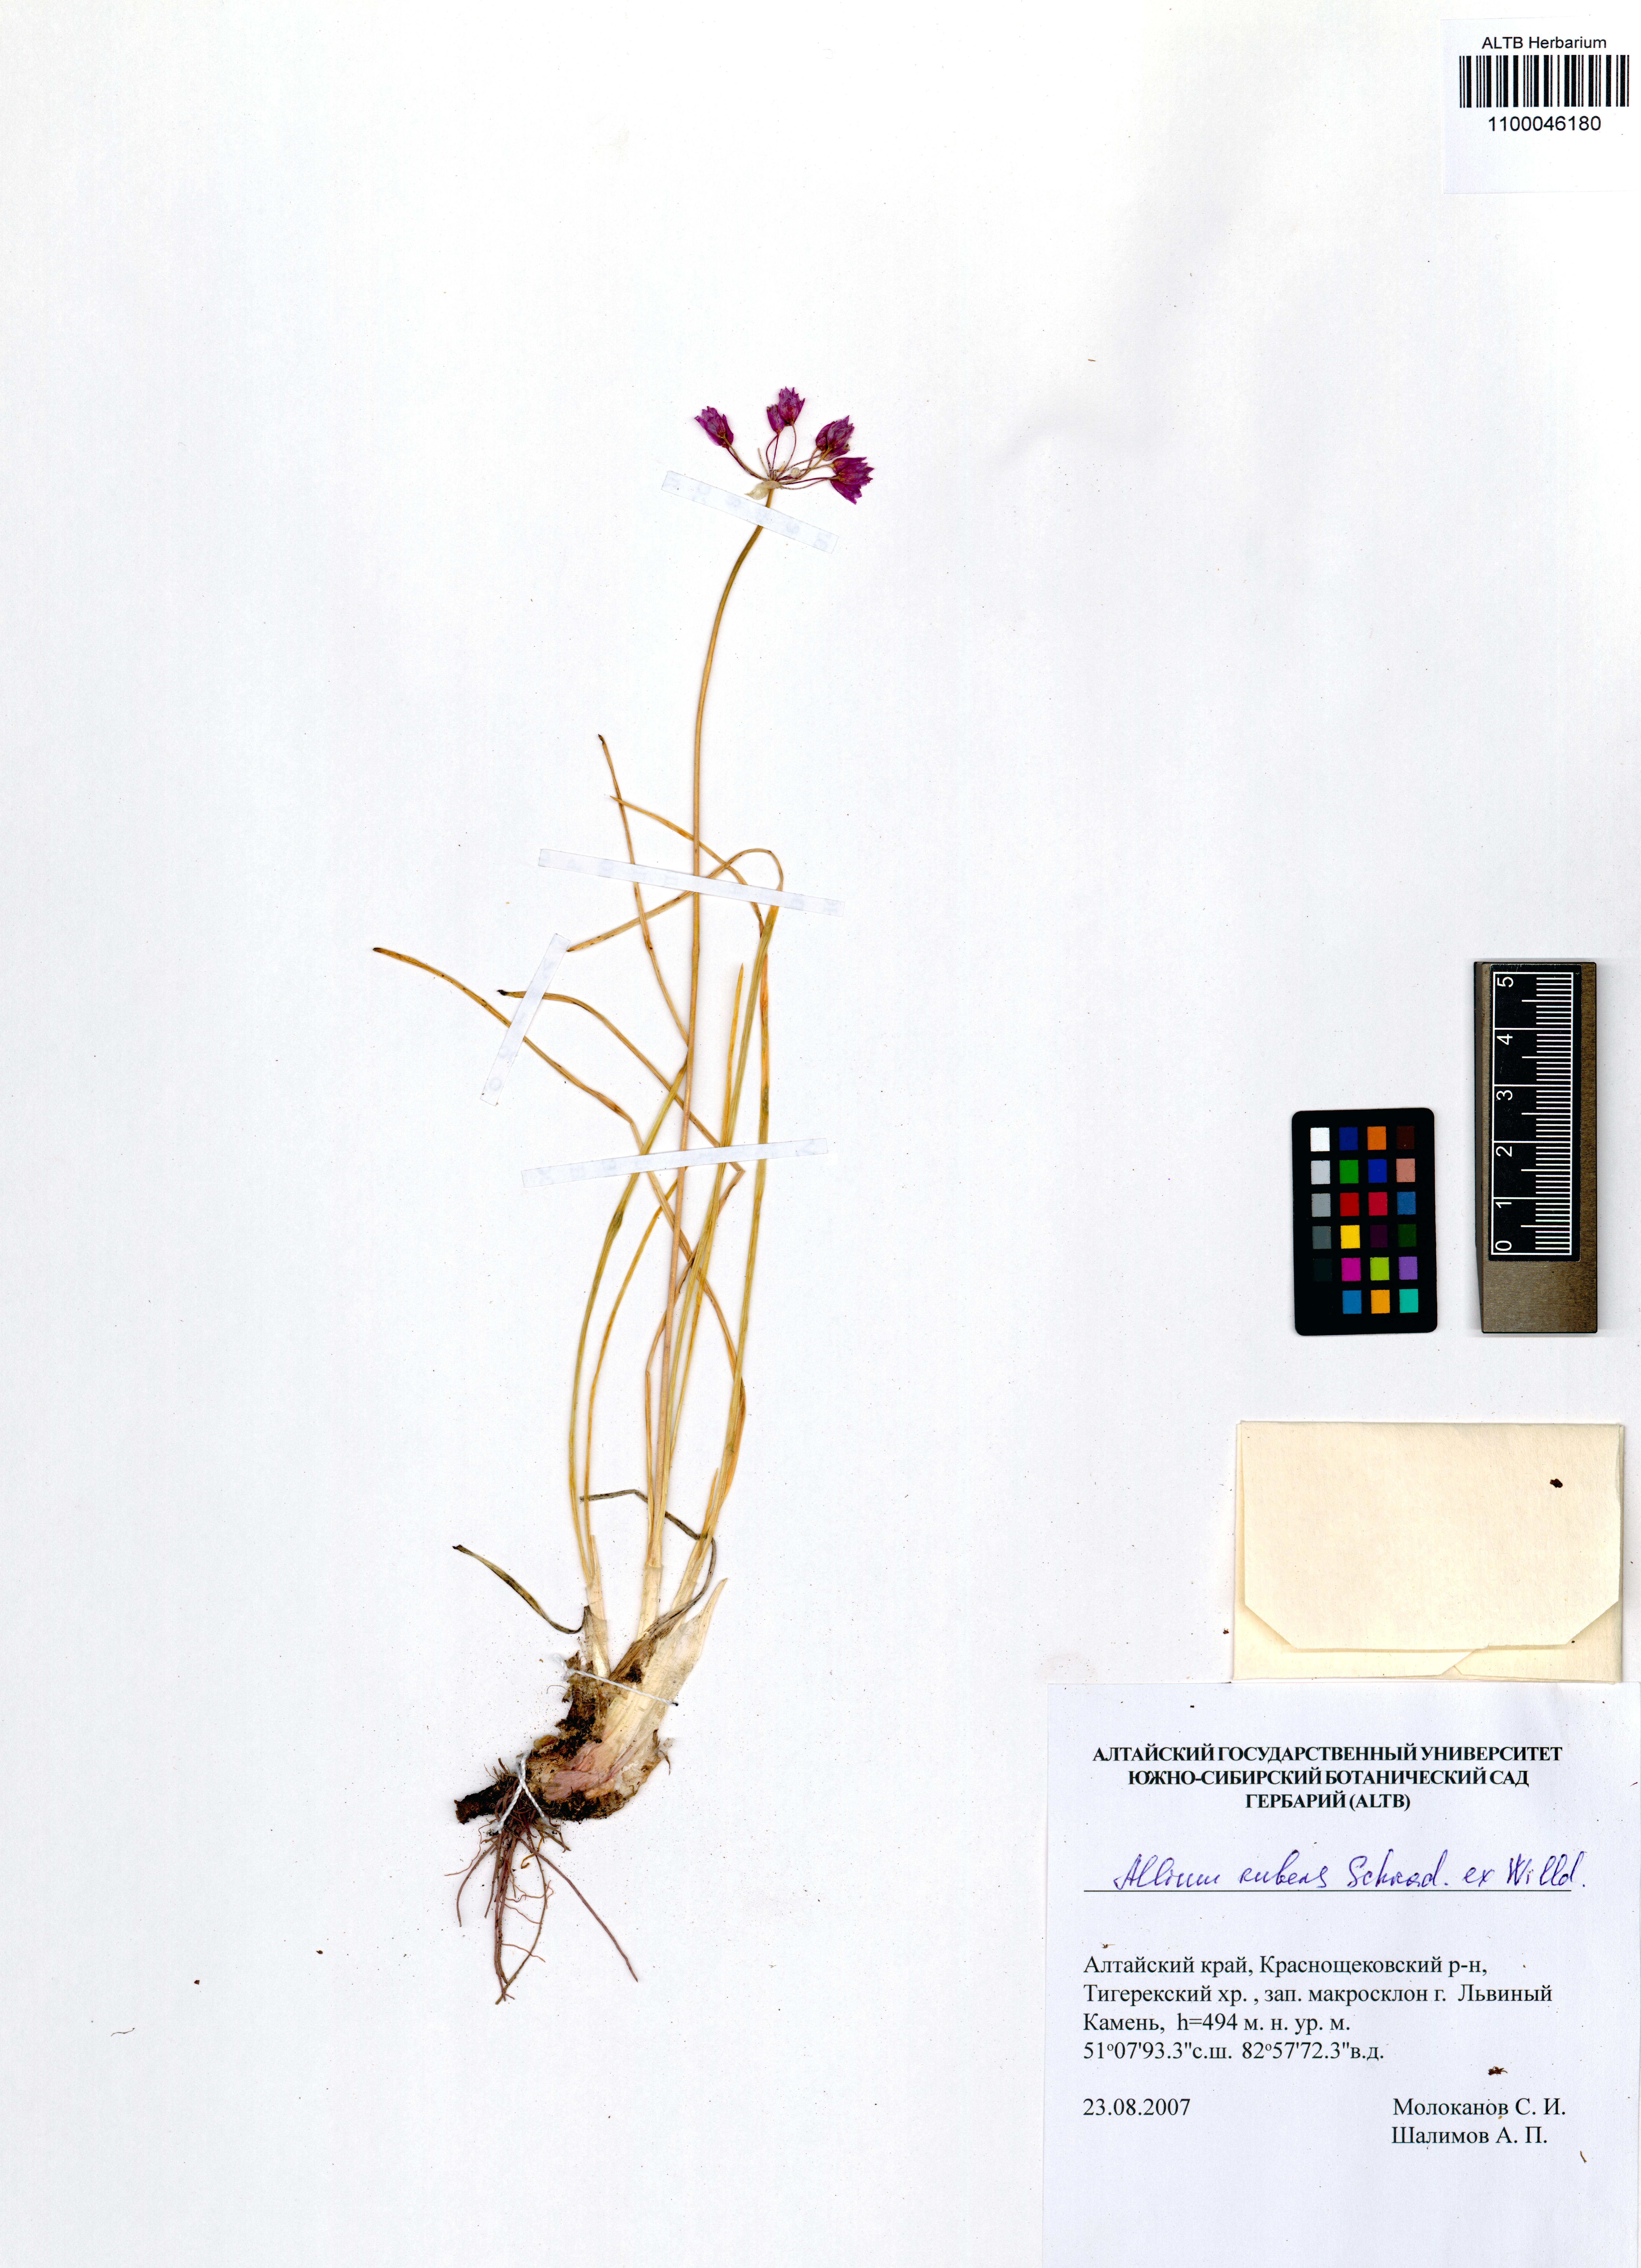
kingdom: Plantae
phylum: Tracheophyta
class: Liliopsida
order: Asparagales
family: Amaryllidaceae
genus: Allium
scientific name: Allium rubens
